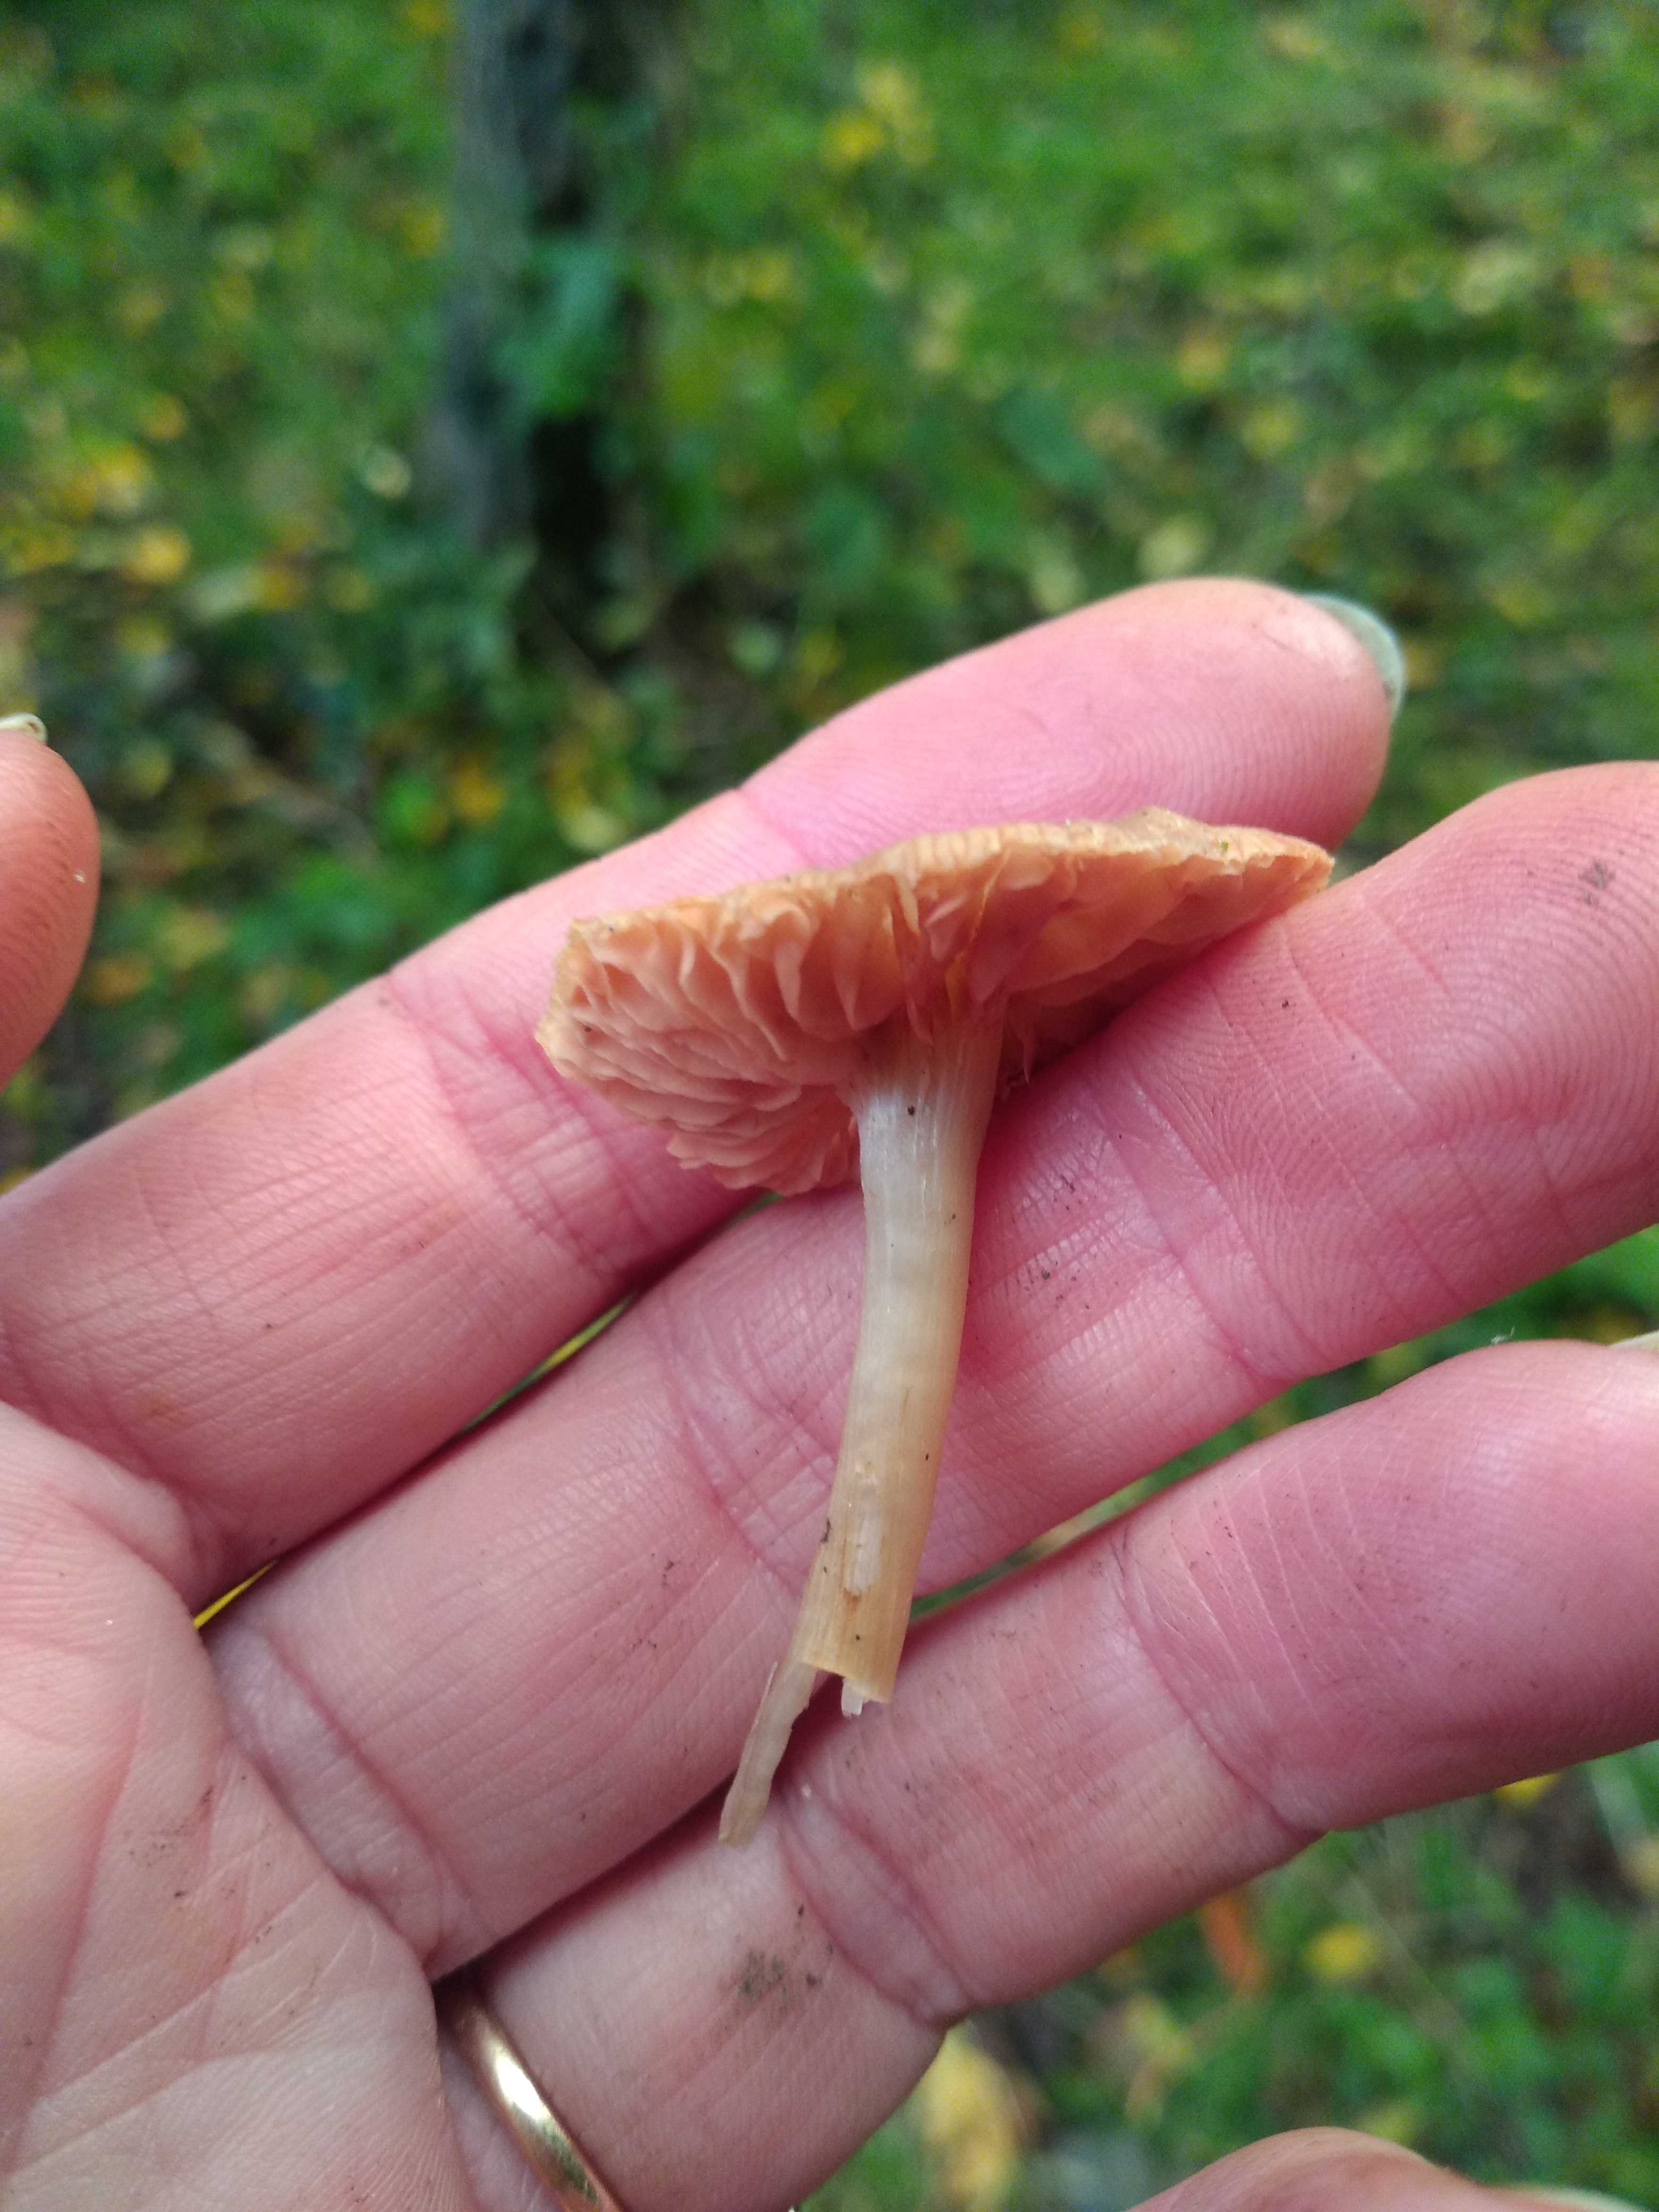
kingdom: Fungi
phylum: Basidiomycota
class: Agaricomycetes
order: Agaricales
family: Entolomataceae
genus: Entoloma
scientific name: Entoloma
